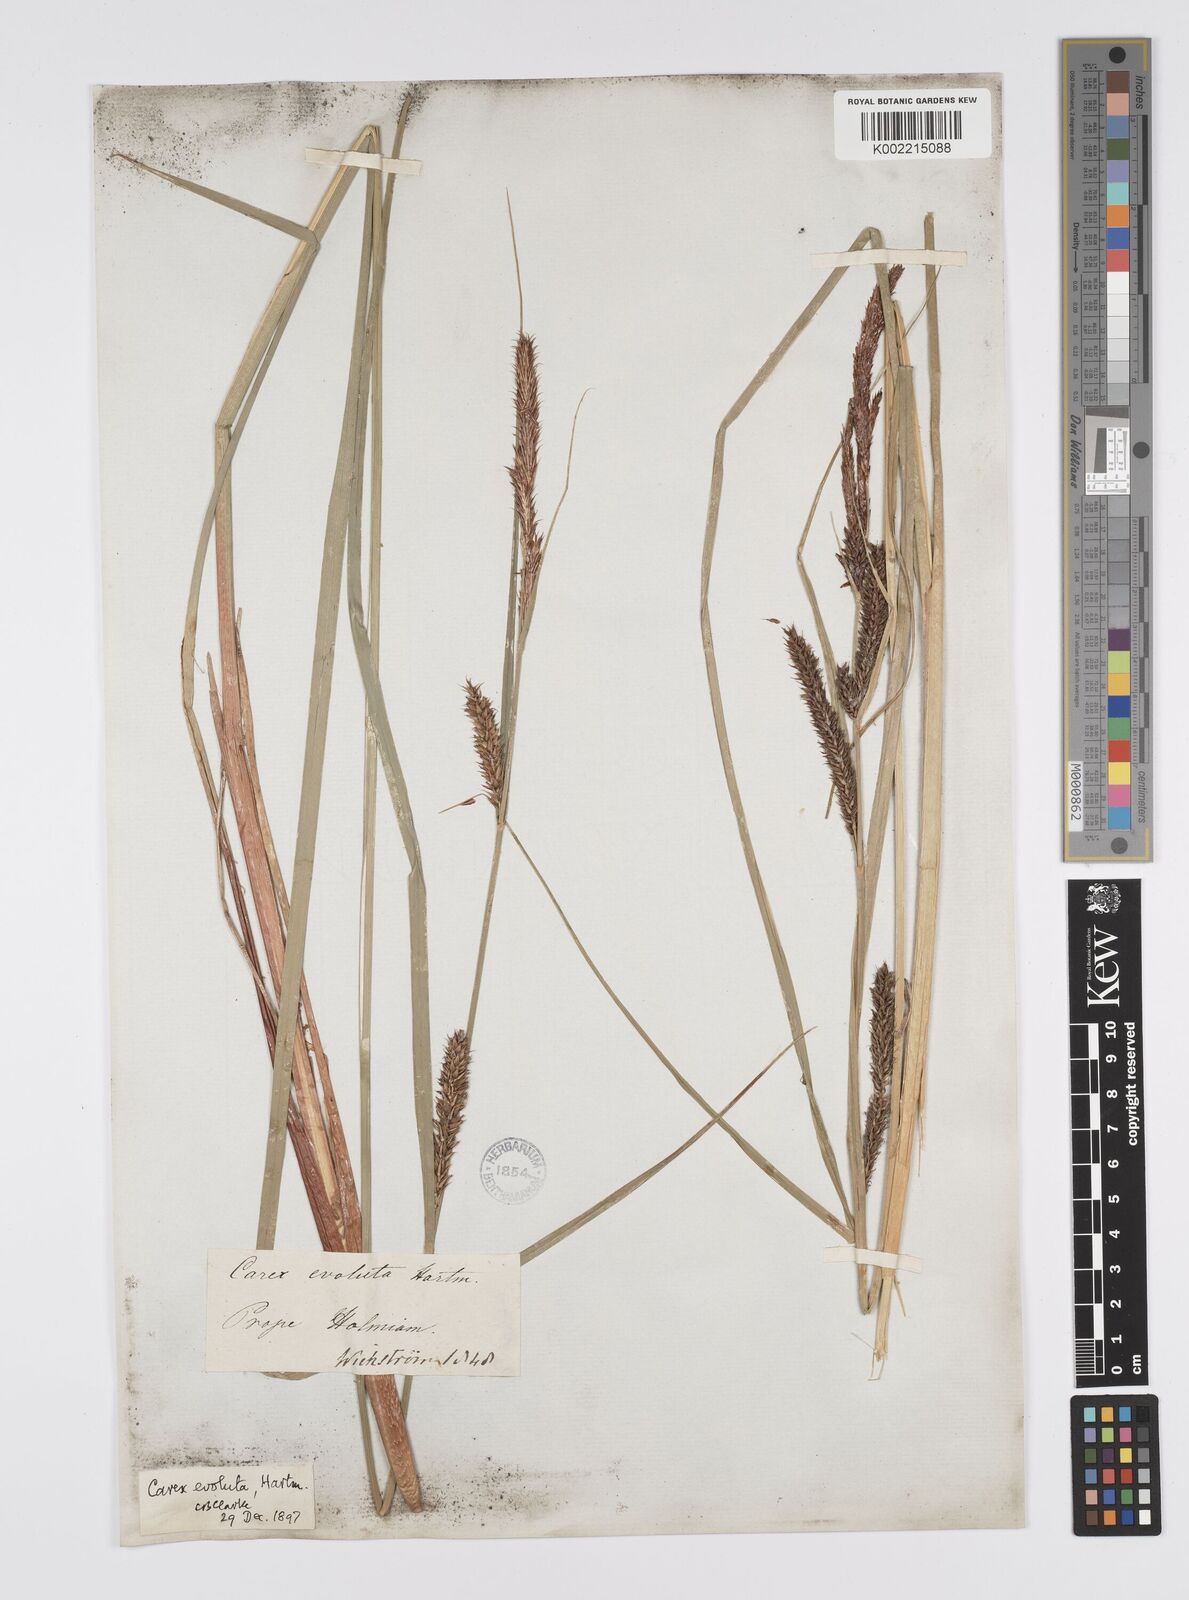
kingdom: Plantae
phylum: Tracheophyta
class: Liliopsida
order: Poales
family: Cyperaceae
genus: Carex
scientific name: Carex evoluta
